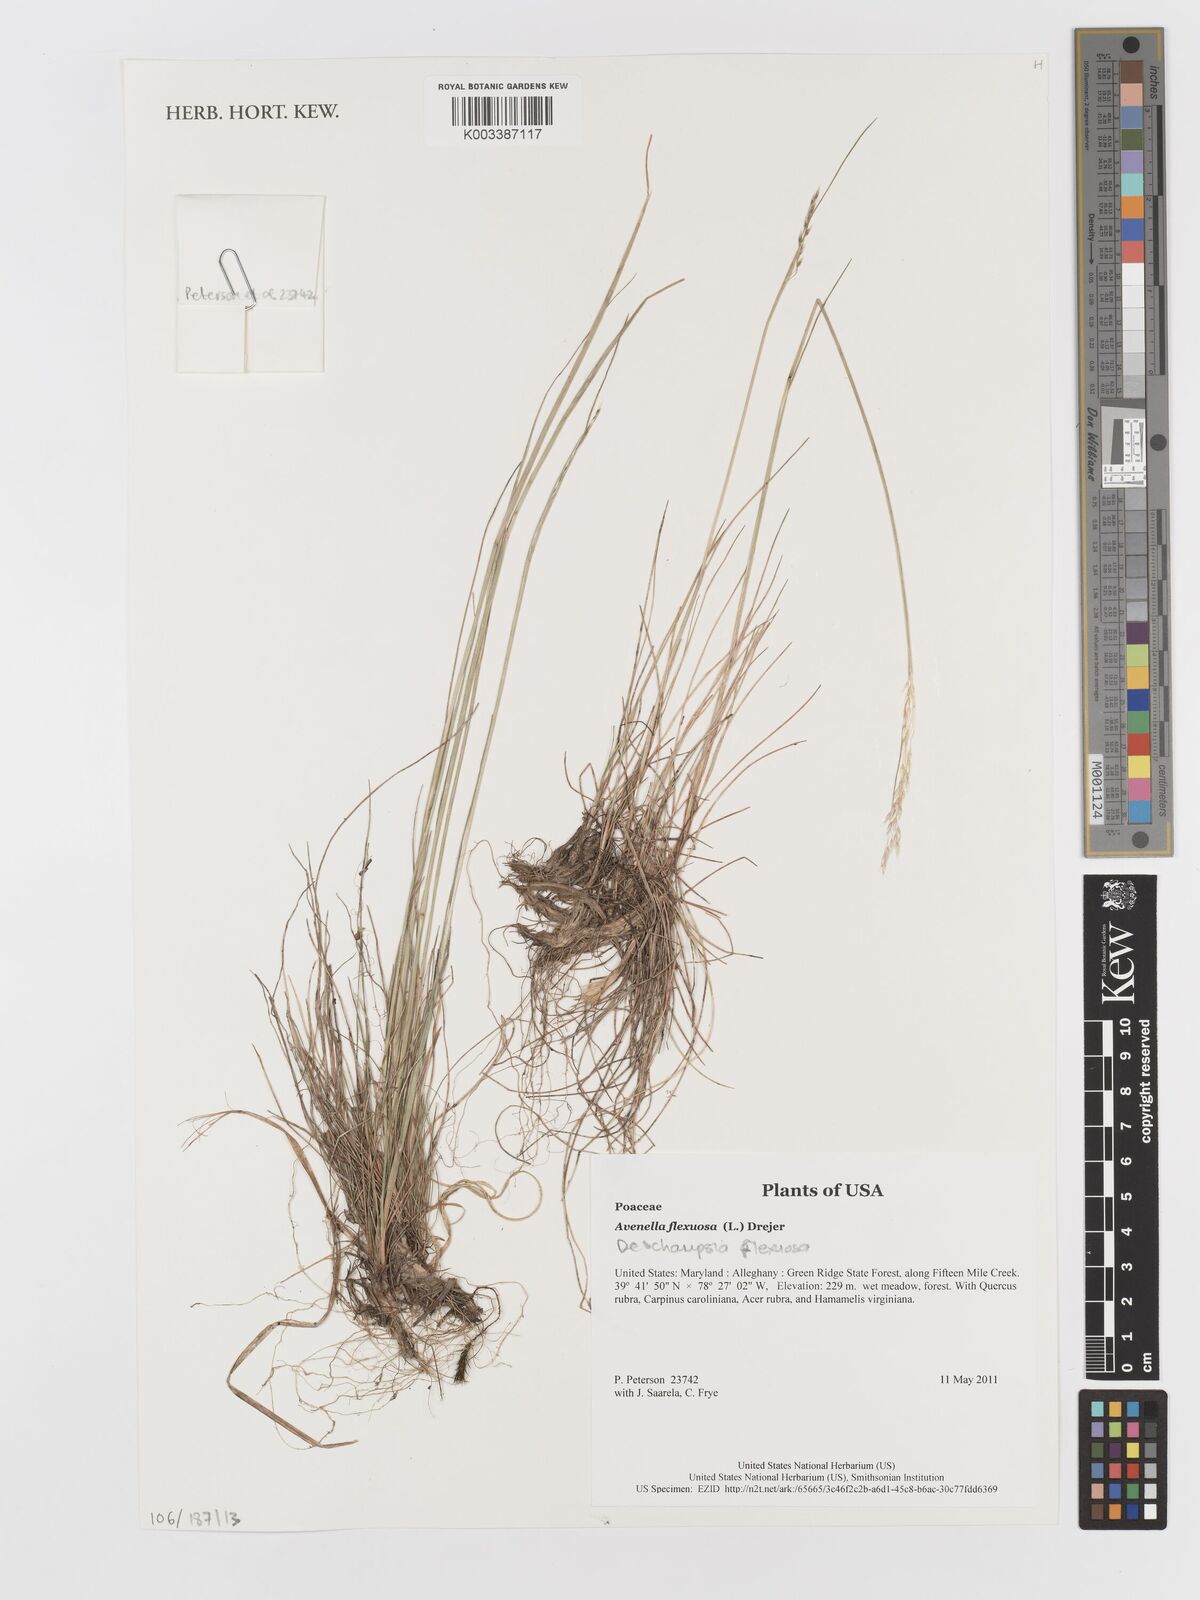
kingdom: Plantae
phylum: Tracheophyta
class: Liliopsida
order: Poales
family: Poaceae
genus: Avenella
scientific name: Avenella flexuosa
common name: Wavy hairgrass
